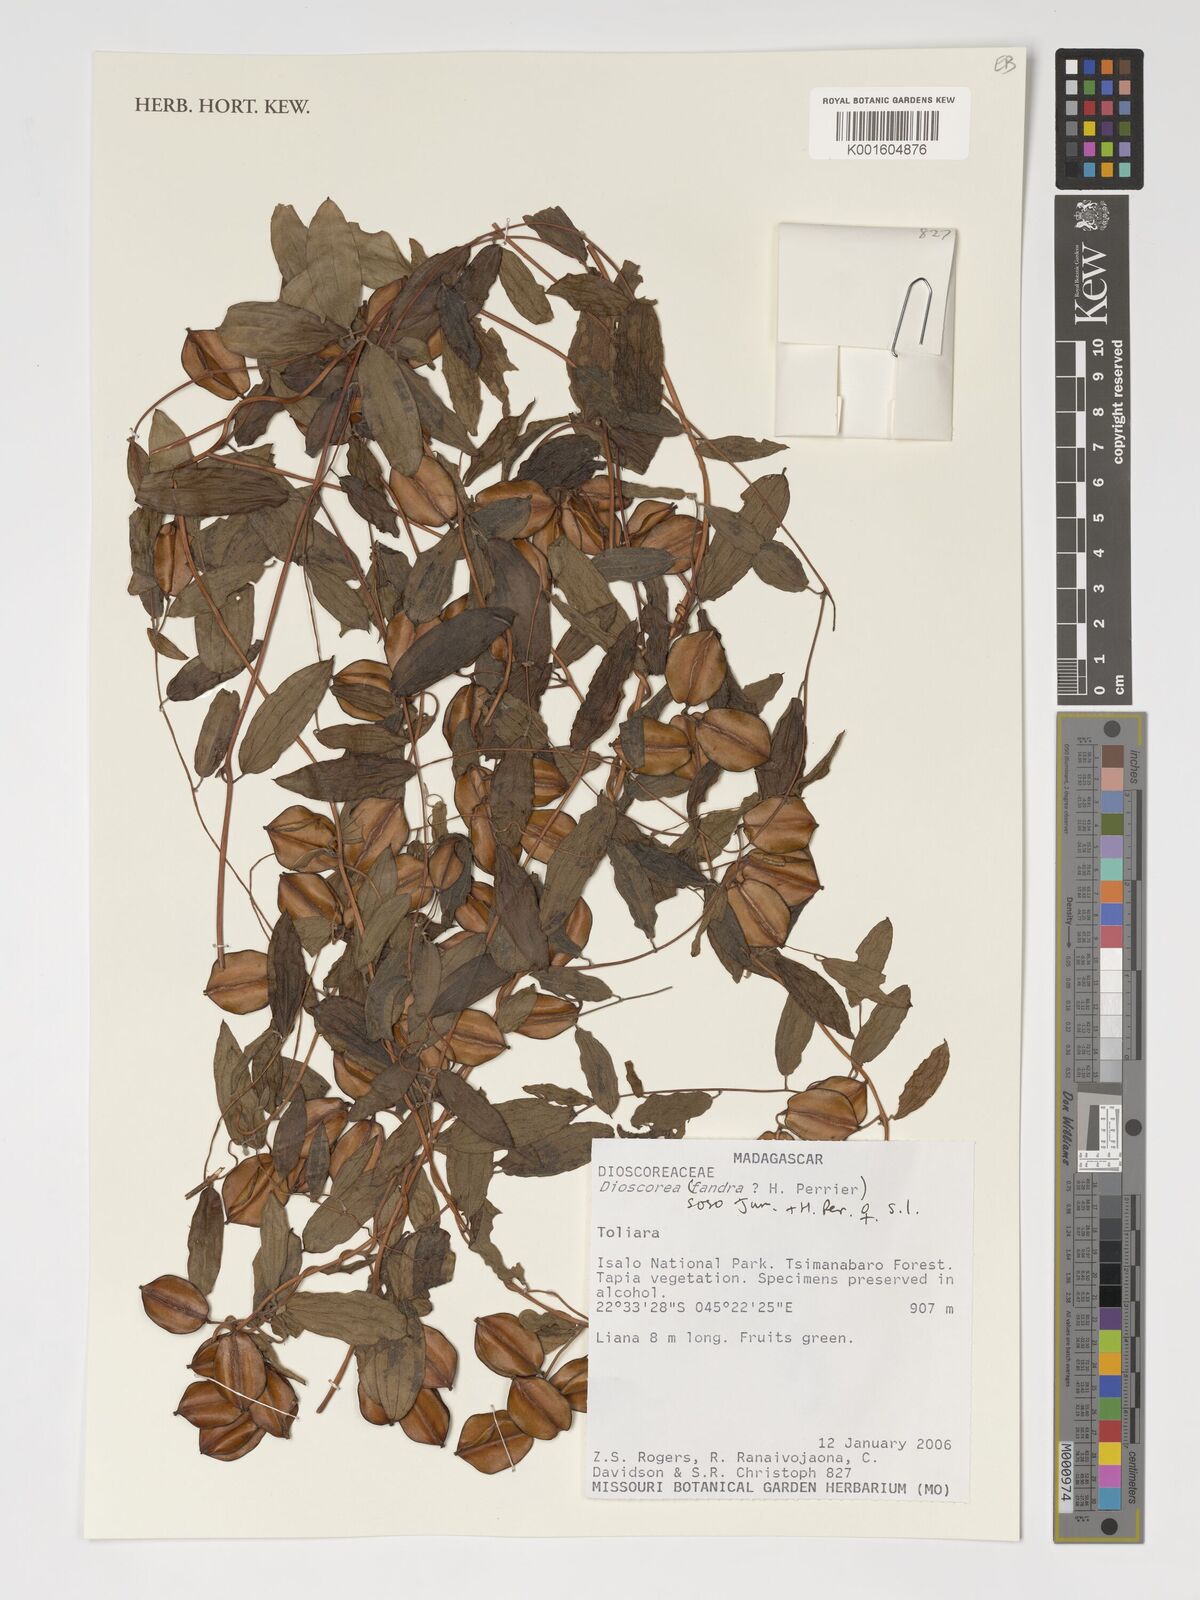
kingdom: Plantae
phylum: Tracheophyta
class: Liliopsida
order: Dioscoreales
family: Dioscoreaceae
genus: Dioscorea
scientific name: Dioscorea soso
